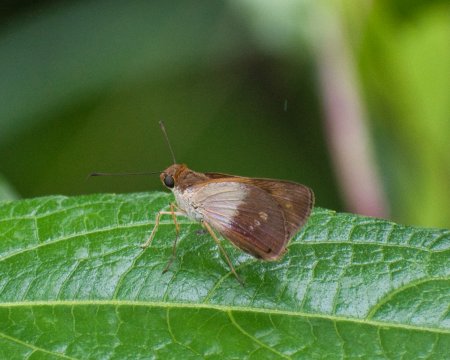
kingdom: Animalia
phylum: Arthropoda
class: Insecta
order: Lepidoptera
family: Hesperiidae
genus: Saliana
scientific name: Saliana fusta
